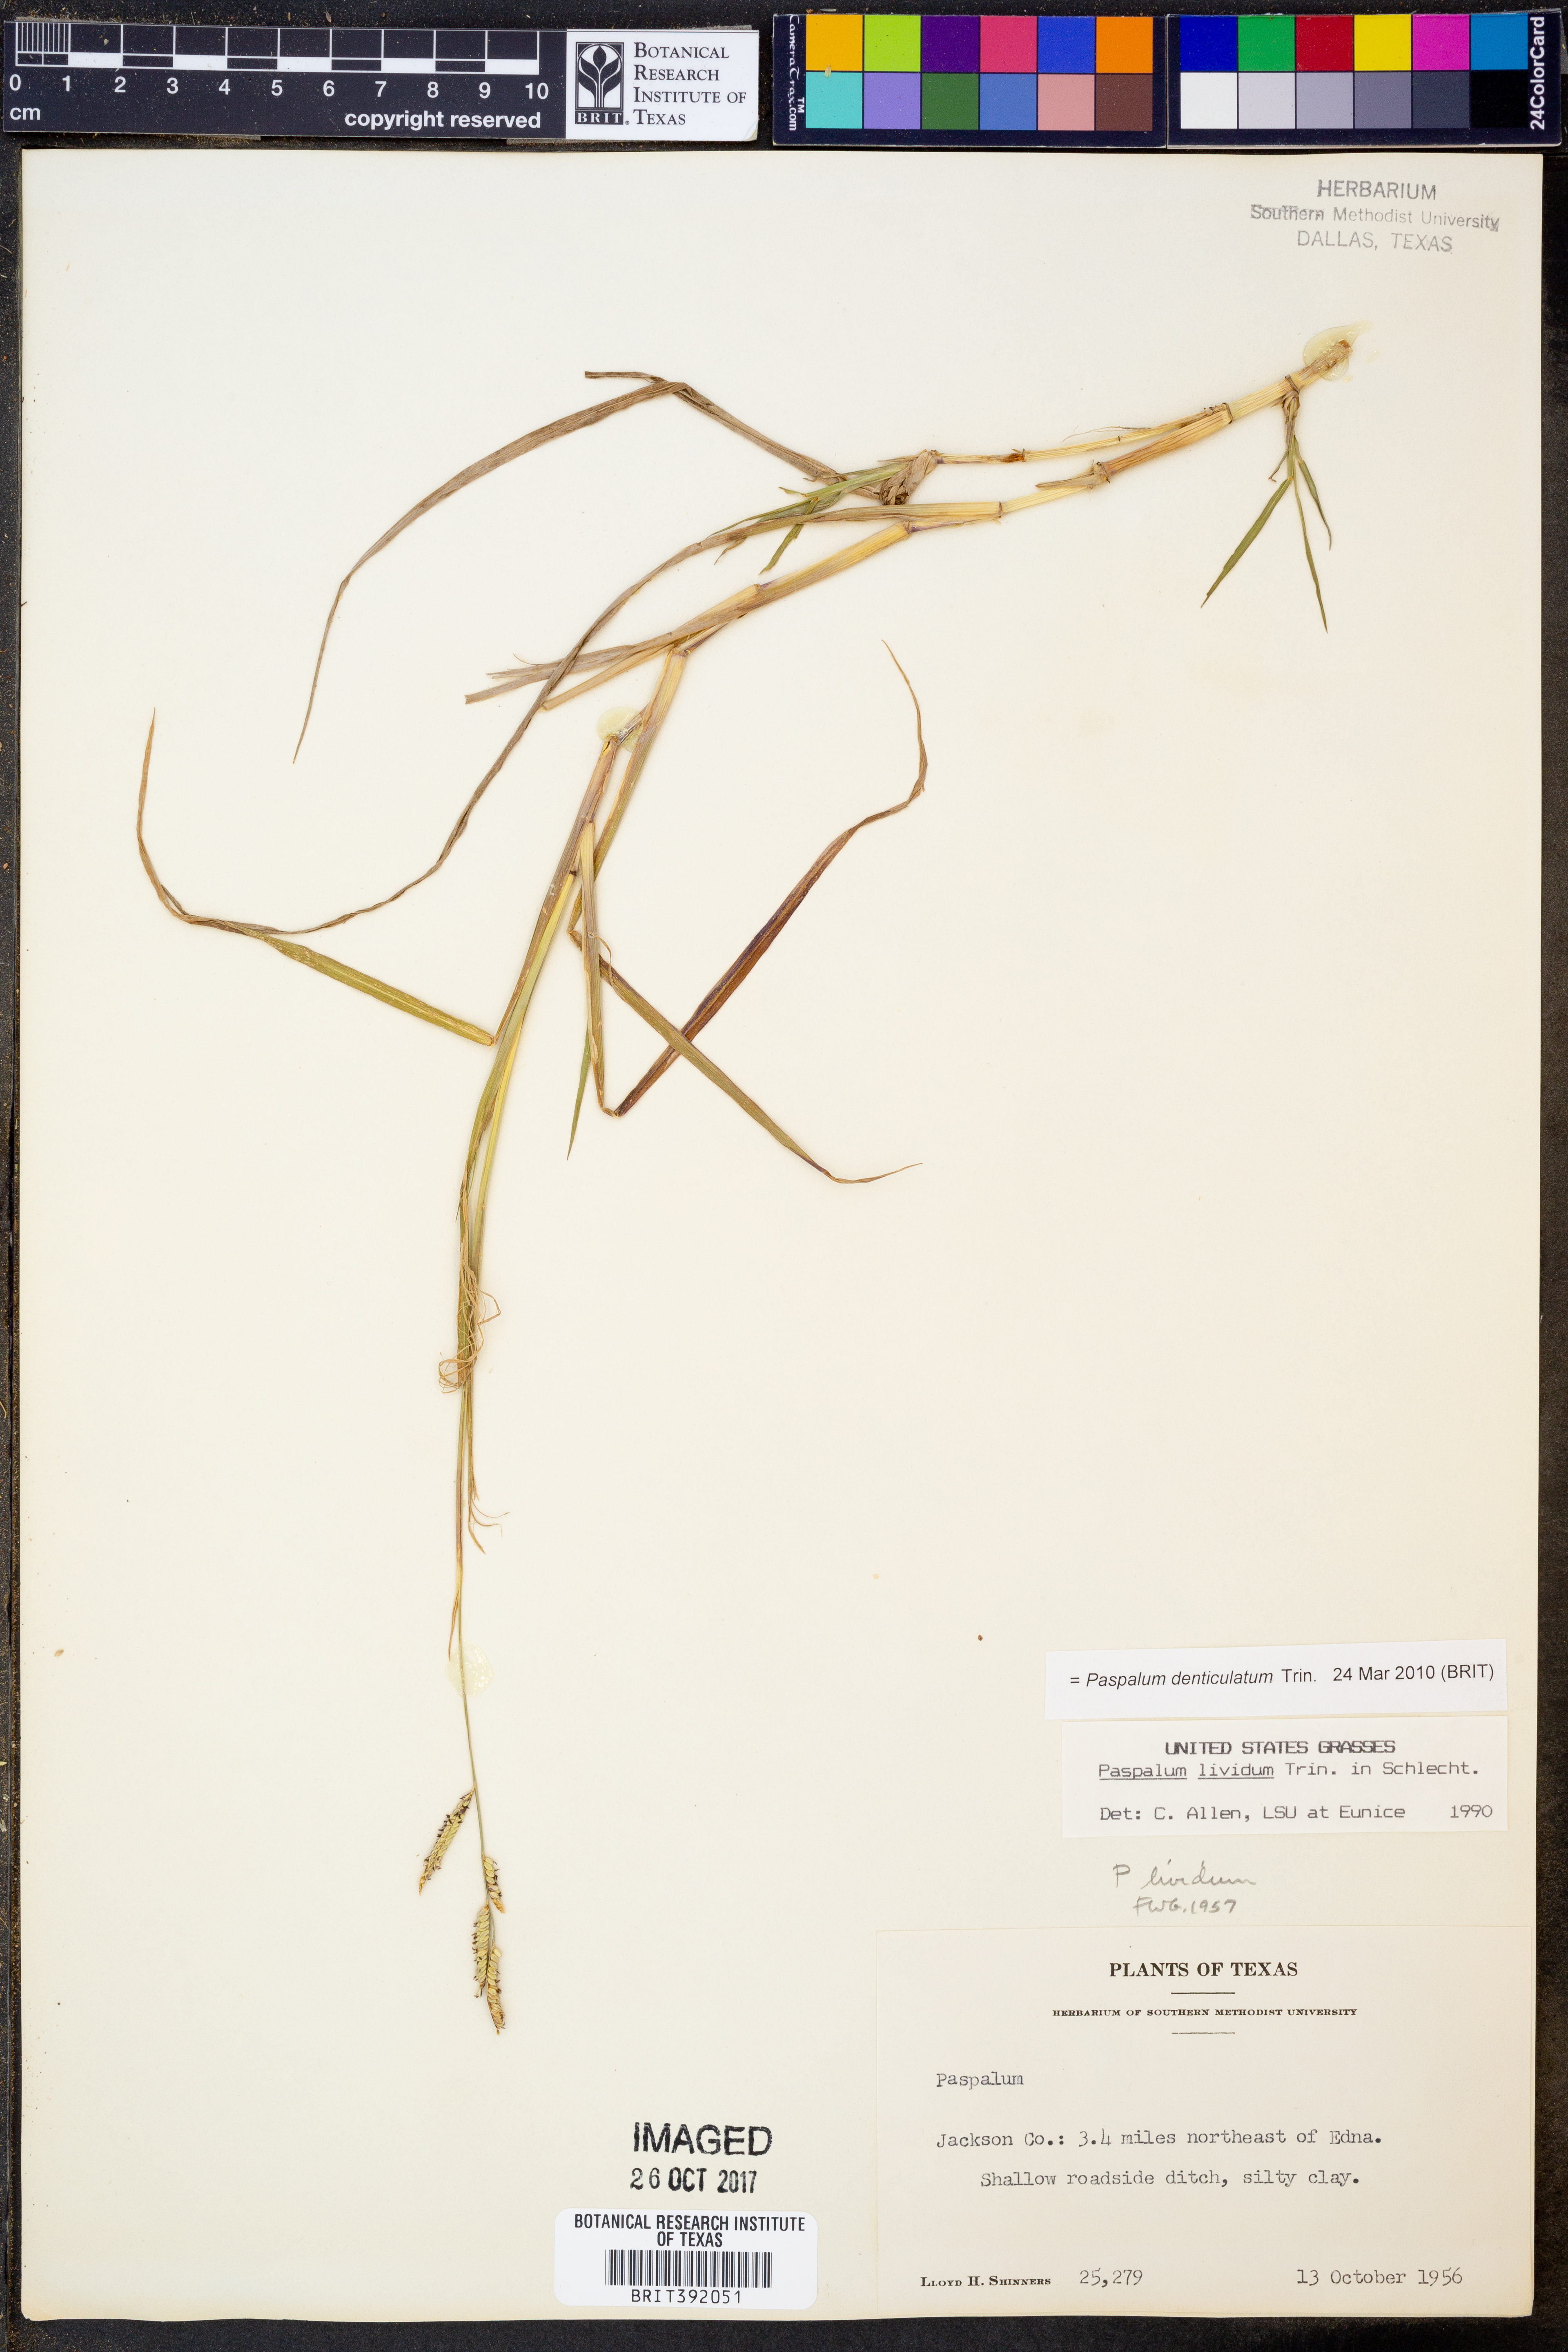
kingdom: Plantae
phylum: Tracheophyta
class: Liliopsida
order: Poales
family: Poaceae
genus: Paspalum
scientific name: Paspalum denticulatum
